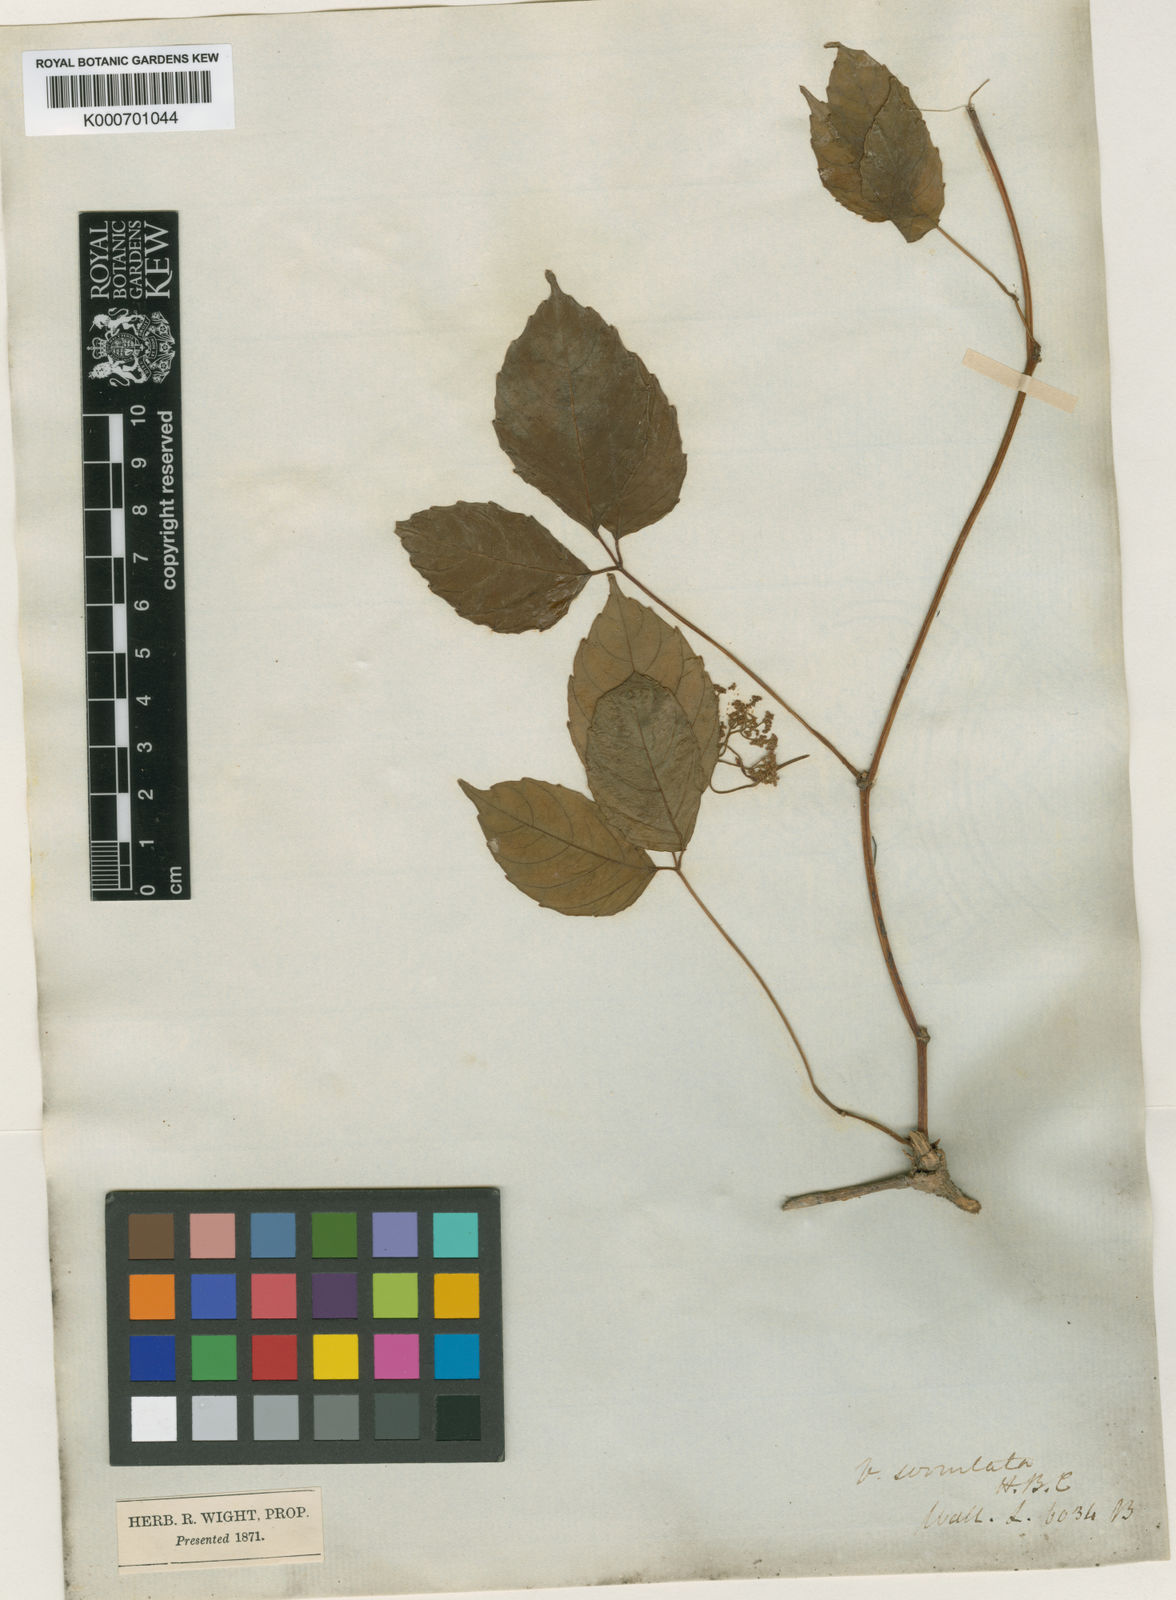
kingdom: Plantae
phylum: Tracheophyta
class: Magnoliopsida
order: Vitales
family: Vitaceae
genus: Tetrastigma
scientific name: Tetrastigma serrulatum
